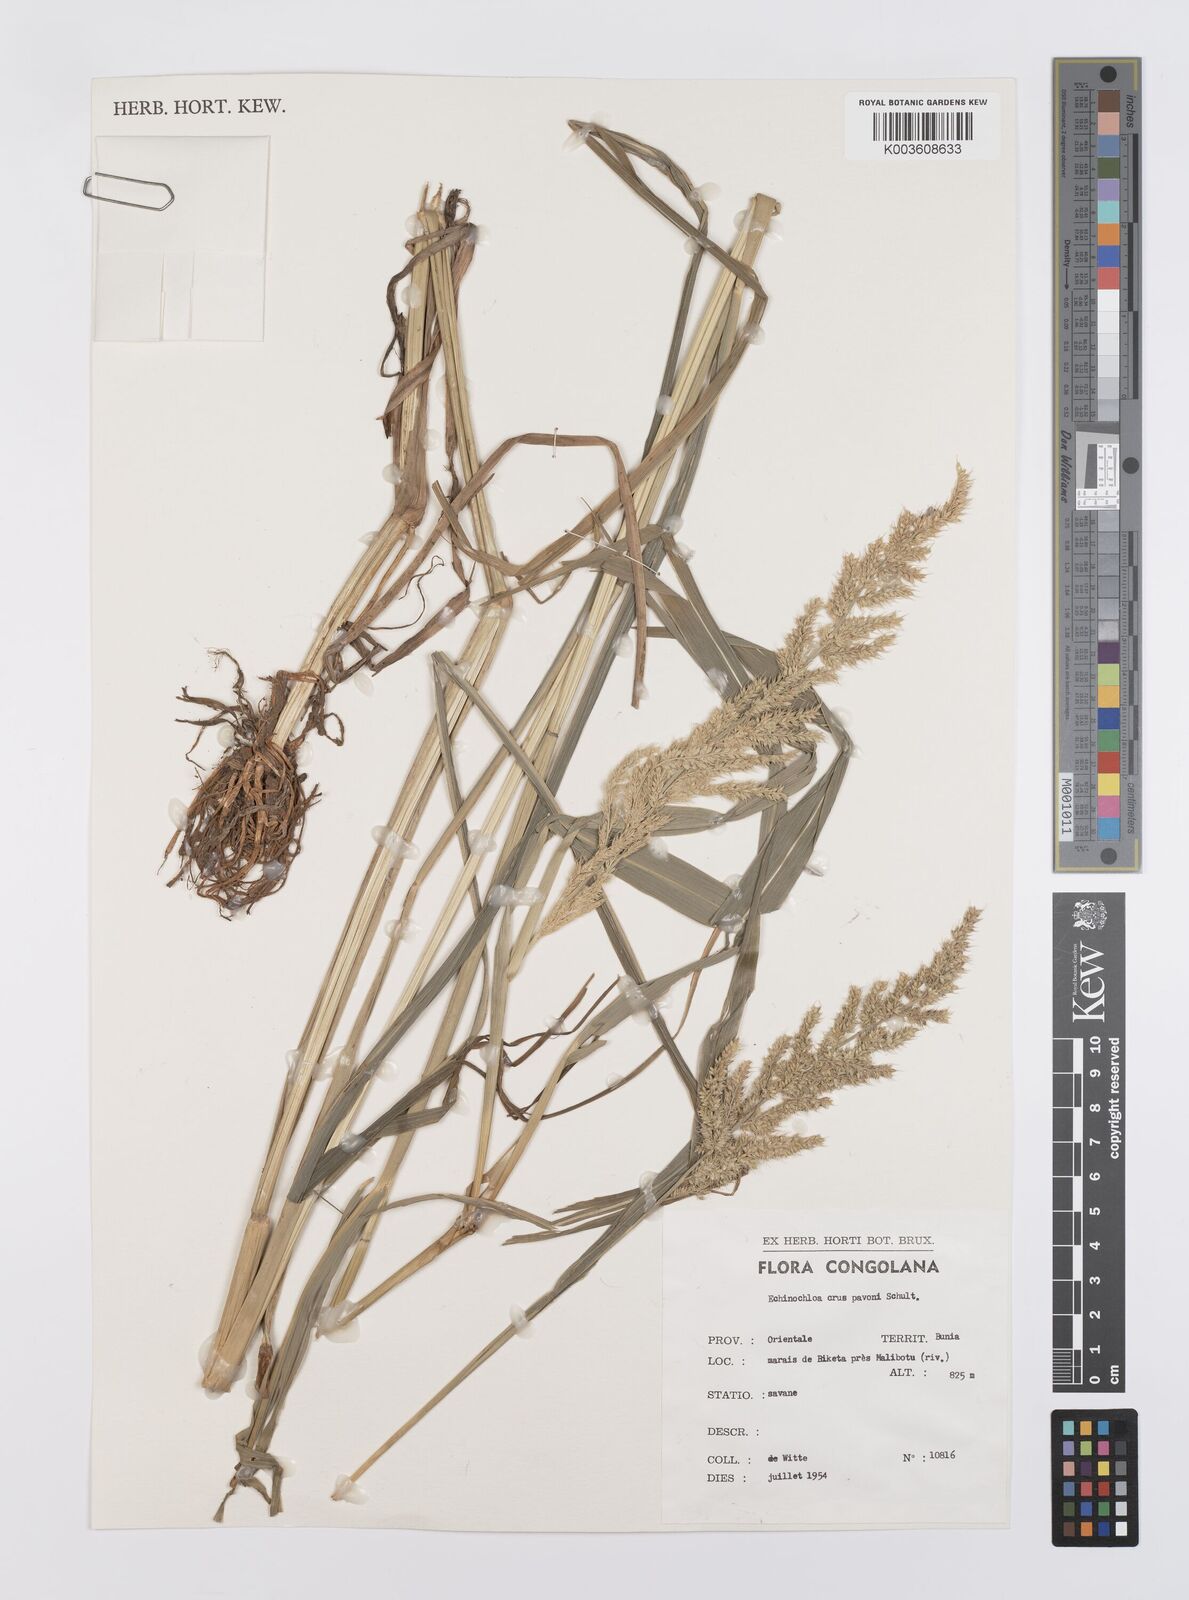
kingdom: Plantae
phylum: Tracheophyta
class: Liliopsida
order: Poales
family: Poaceae
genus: Echinochloa
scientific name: Echinochloa crus-pavonis
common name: Gulf cockspur grass
